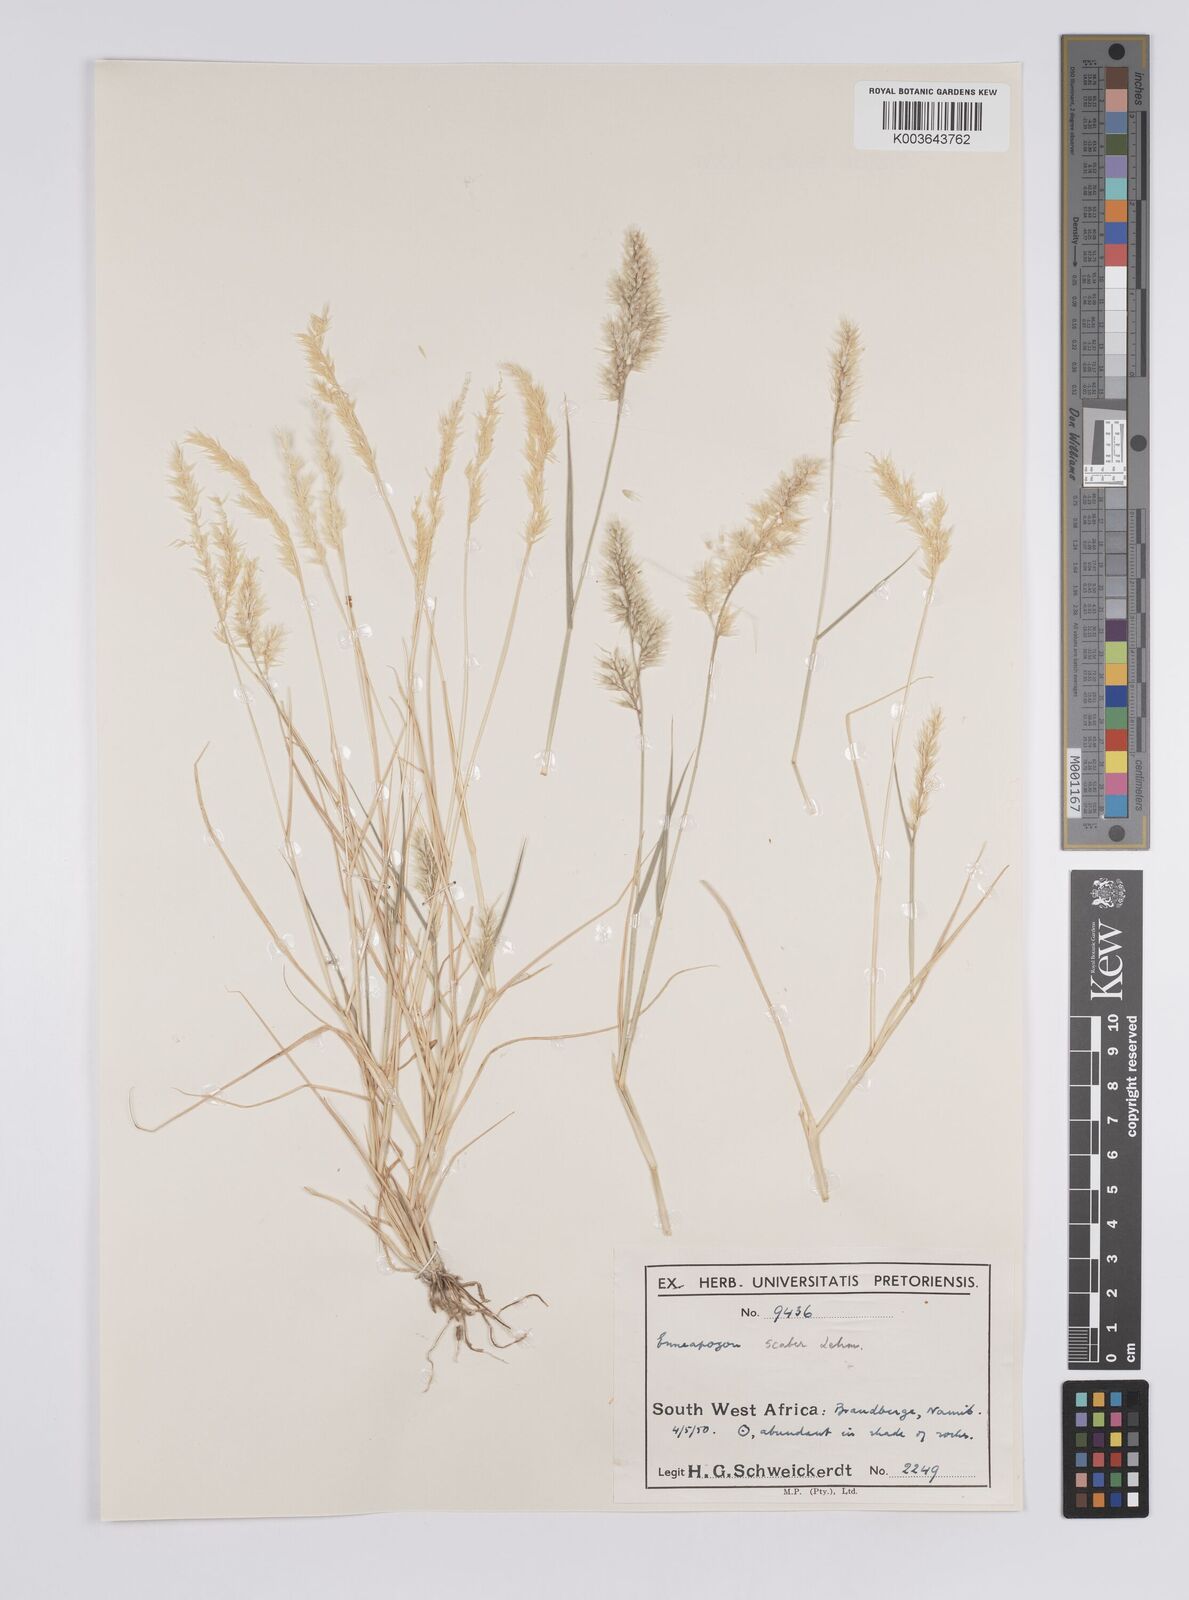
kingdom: Plantae
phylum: Tracheophyta
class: Liliopsida
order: Poales
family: Poaceae
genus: Enneapogon
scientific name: Enneapogon scaber
